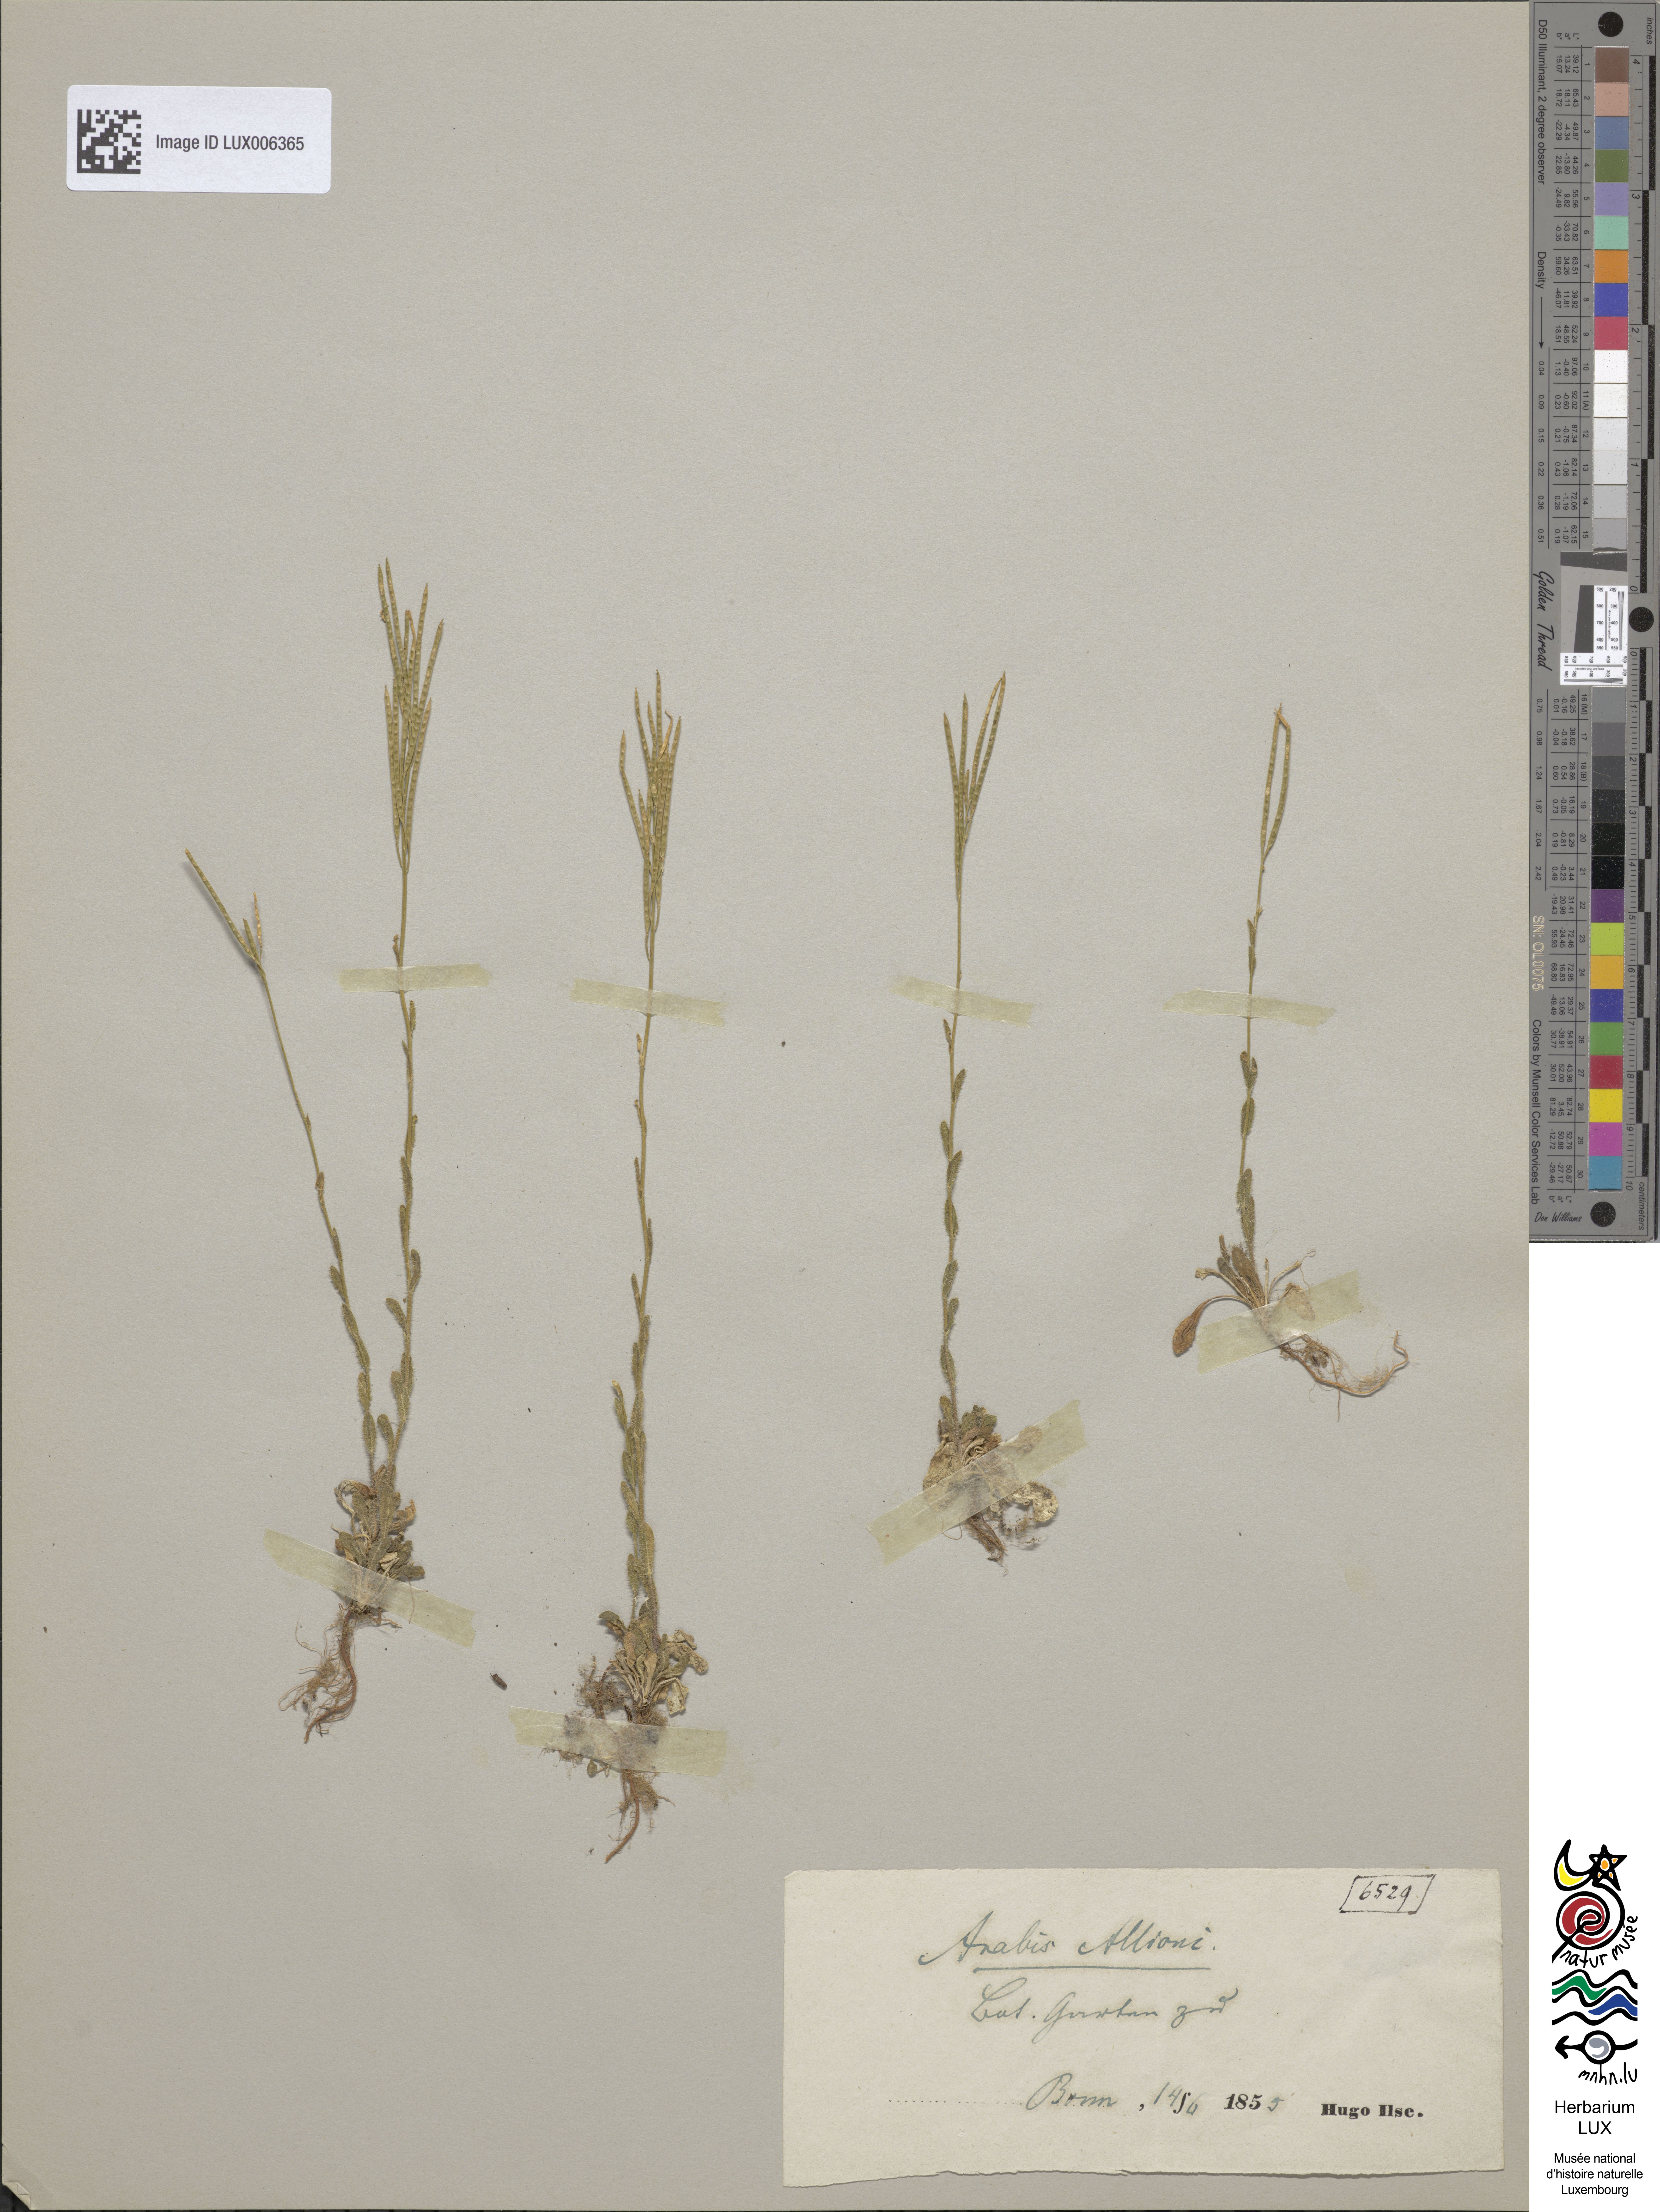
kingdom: Plantae
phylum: Tracheophyta
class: Magnoliopsida
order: Brassicales
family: Brassicaceae
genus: Arabis
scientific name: Arabis allionii
